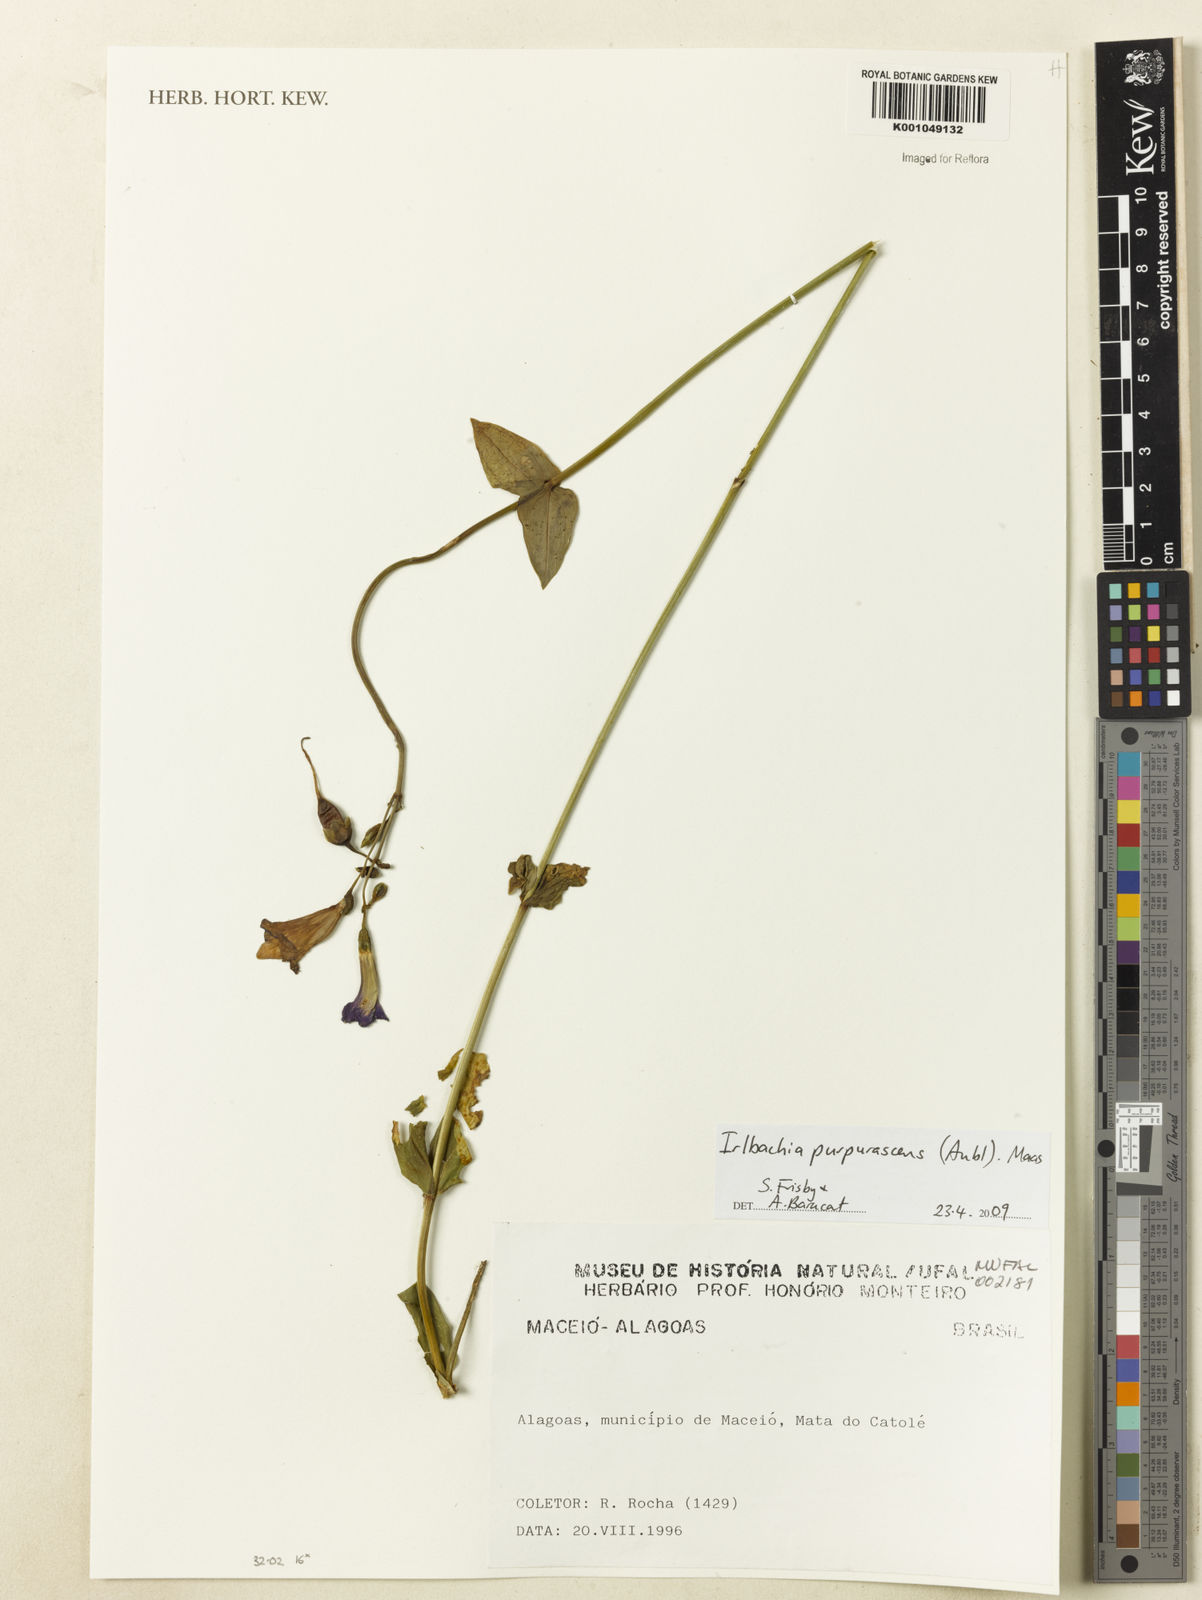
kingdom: Plantae
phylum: Tracheophyta
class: Magnoliopsida
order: Gentianales
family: Gentianaceae
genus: Chelonanthus
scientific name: Chelonanthus purpurascens
